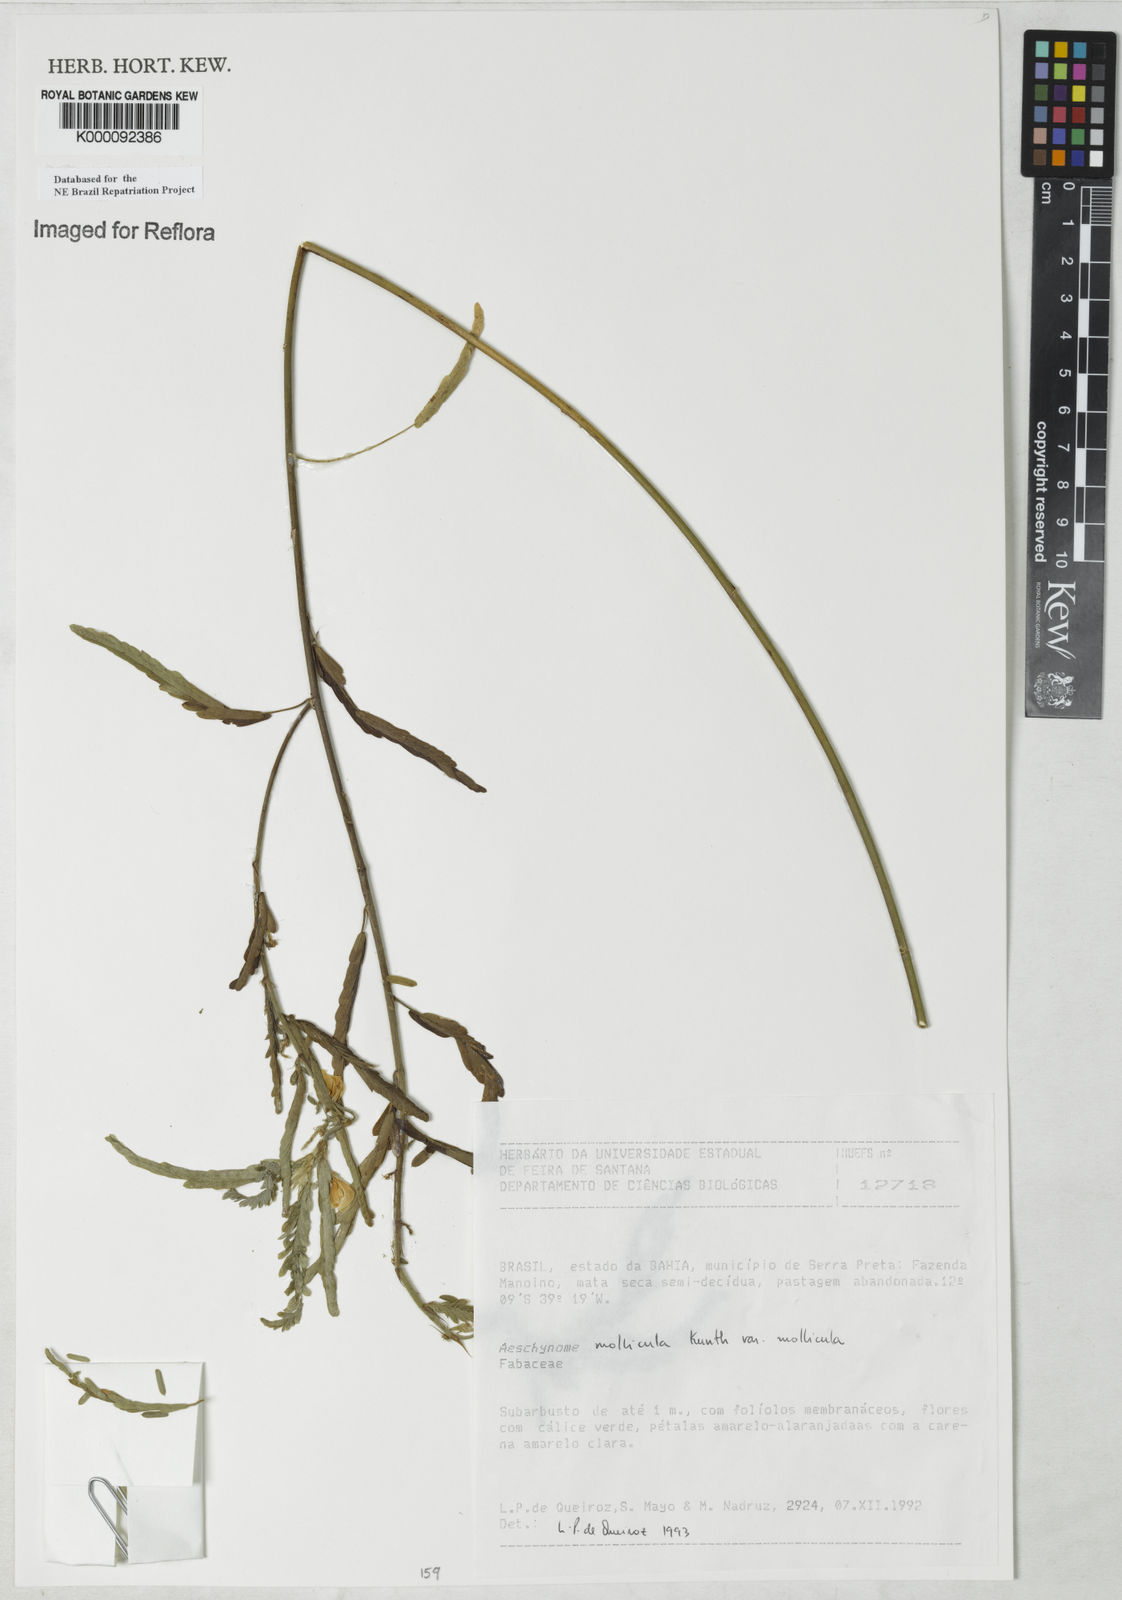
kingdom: Plantae
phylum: Tracheophyta
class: Magnoliopsida
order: Fabales
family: Fabaceae
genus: Ctenodon
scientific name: Ctenodon molliculus
